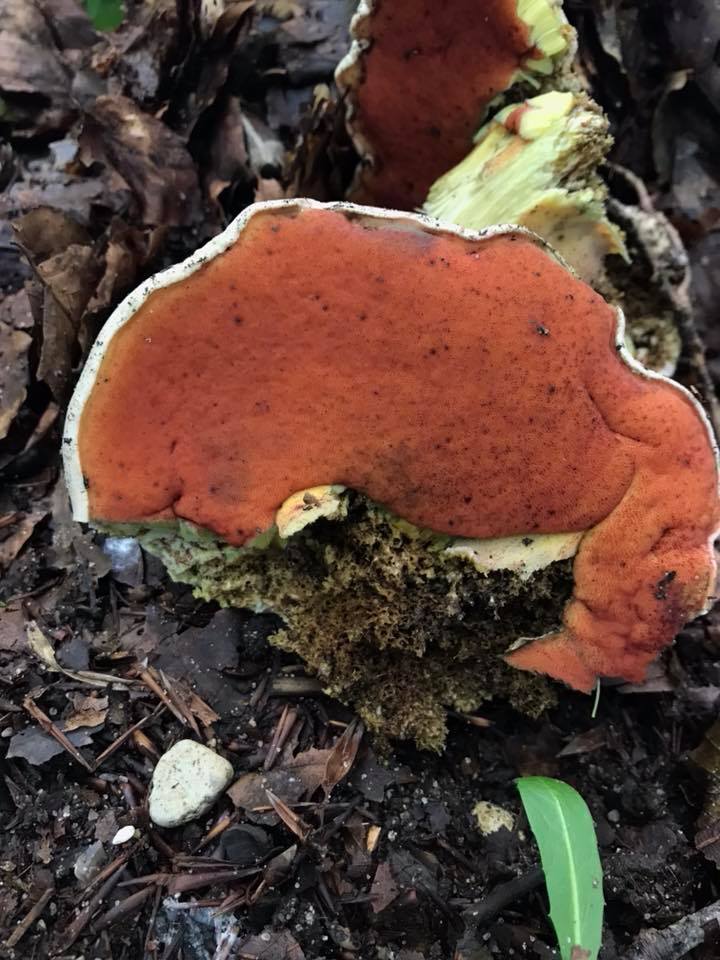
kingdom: Fungi
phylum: Basidiomycota
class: Agaricomycetes
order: Boletales
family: Boletaceae
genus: Rubroboletus
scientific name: Rubroboletus satanas
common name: Satans rørhat
